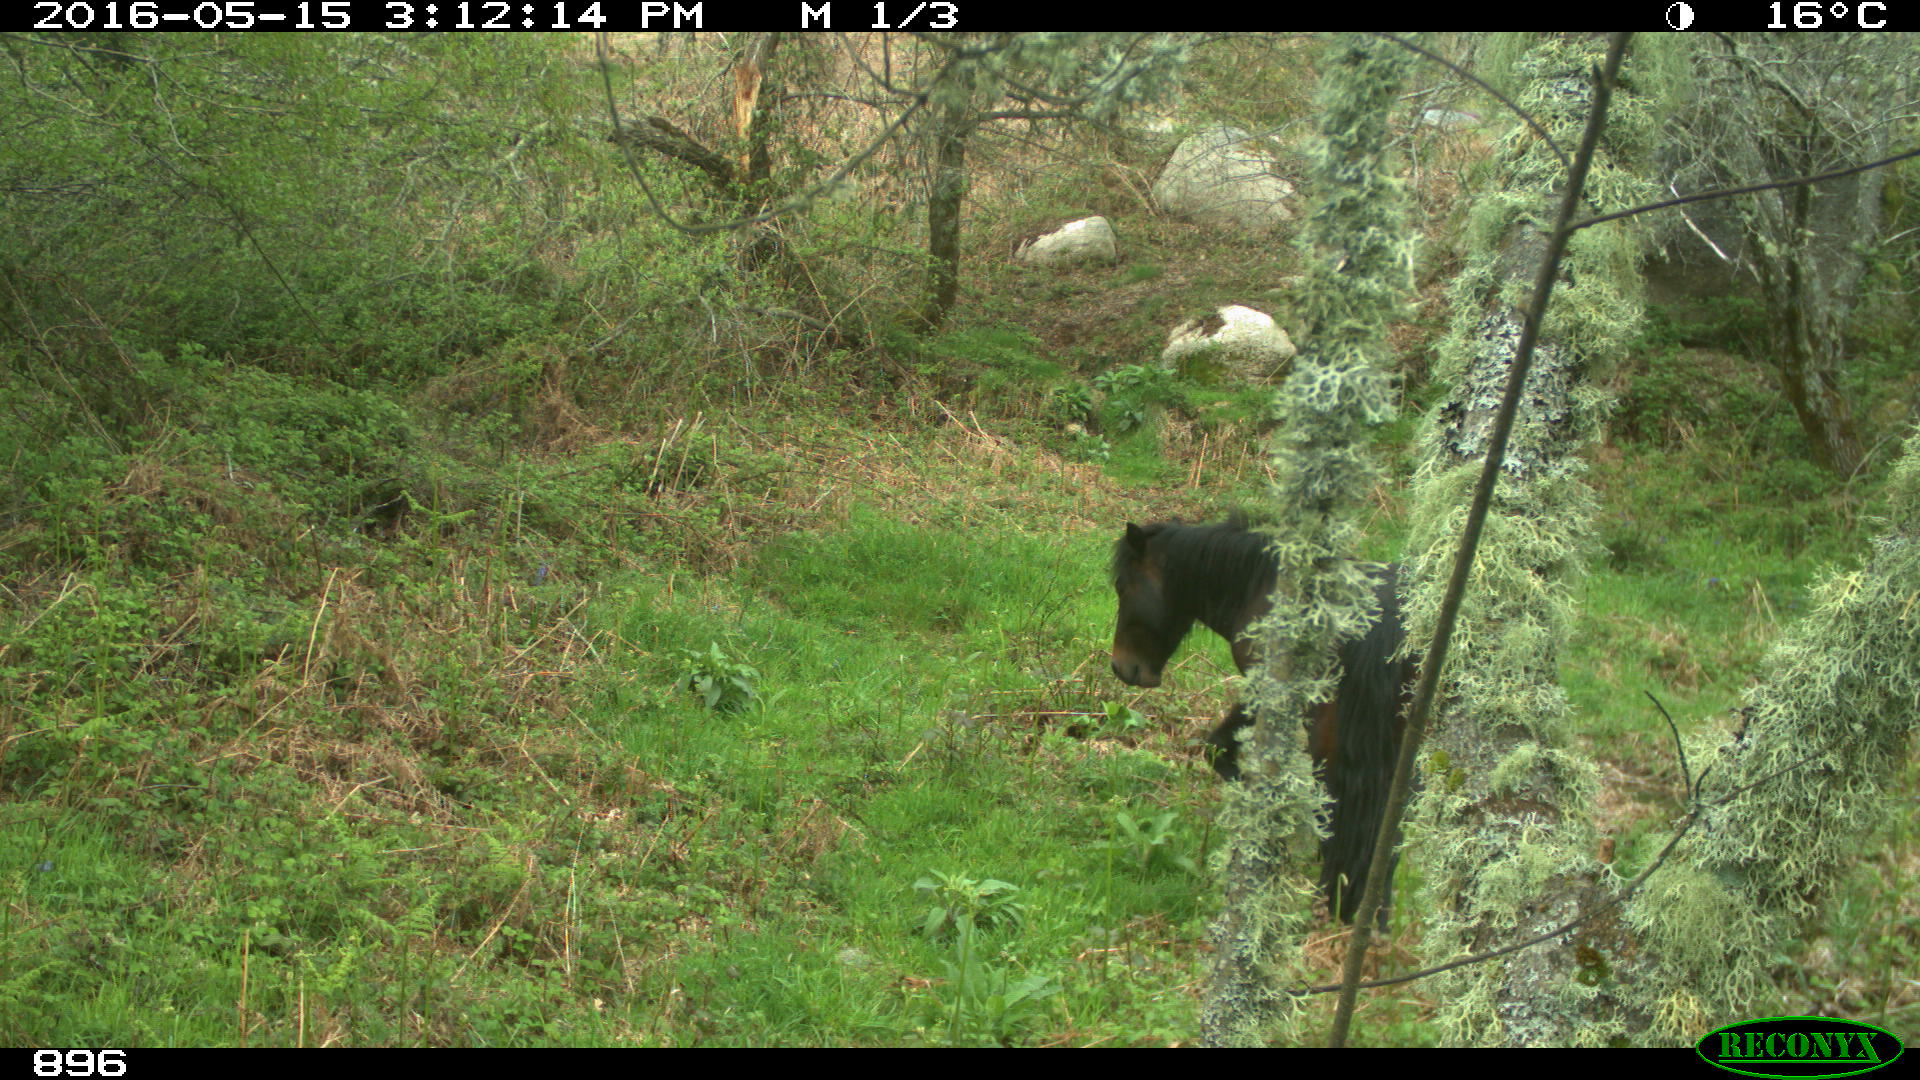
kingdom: Animalia
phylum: Chordata
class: Mammalia
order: Perissodactyla
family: Equidae
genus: Equus
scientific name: Equus caballus
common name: Horse
